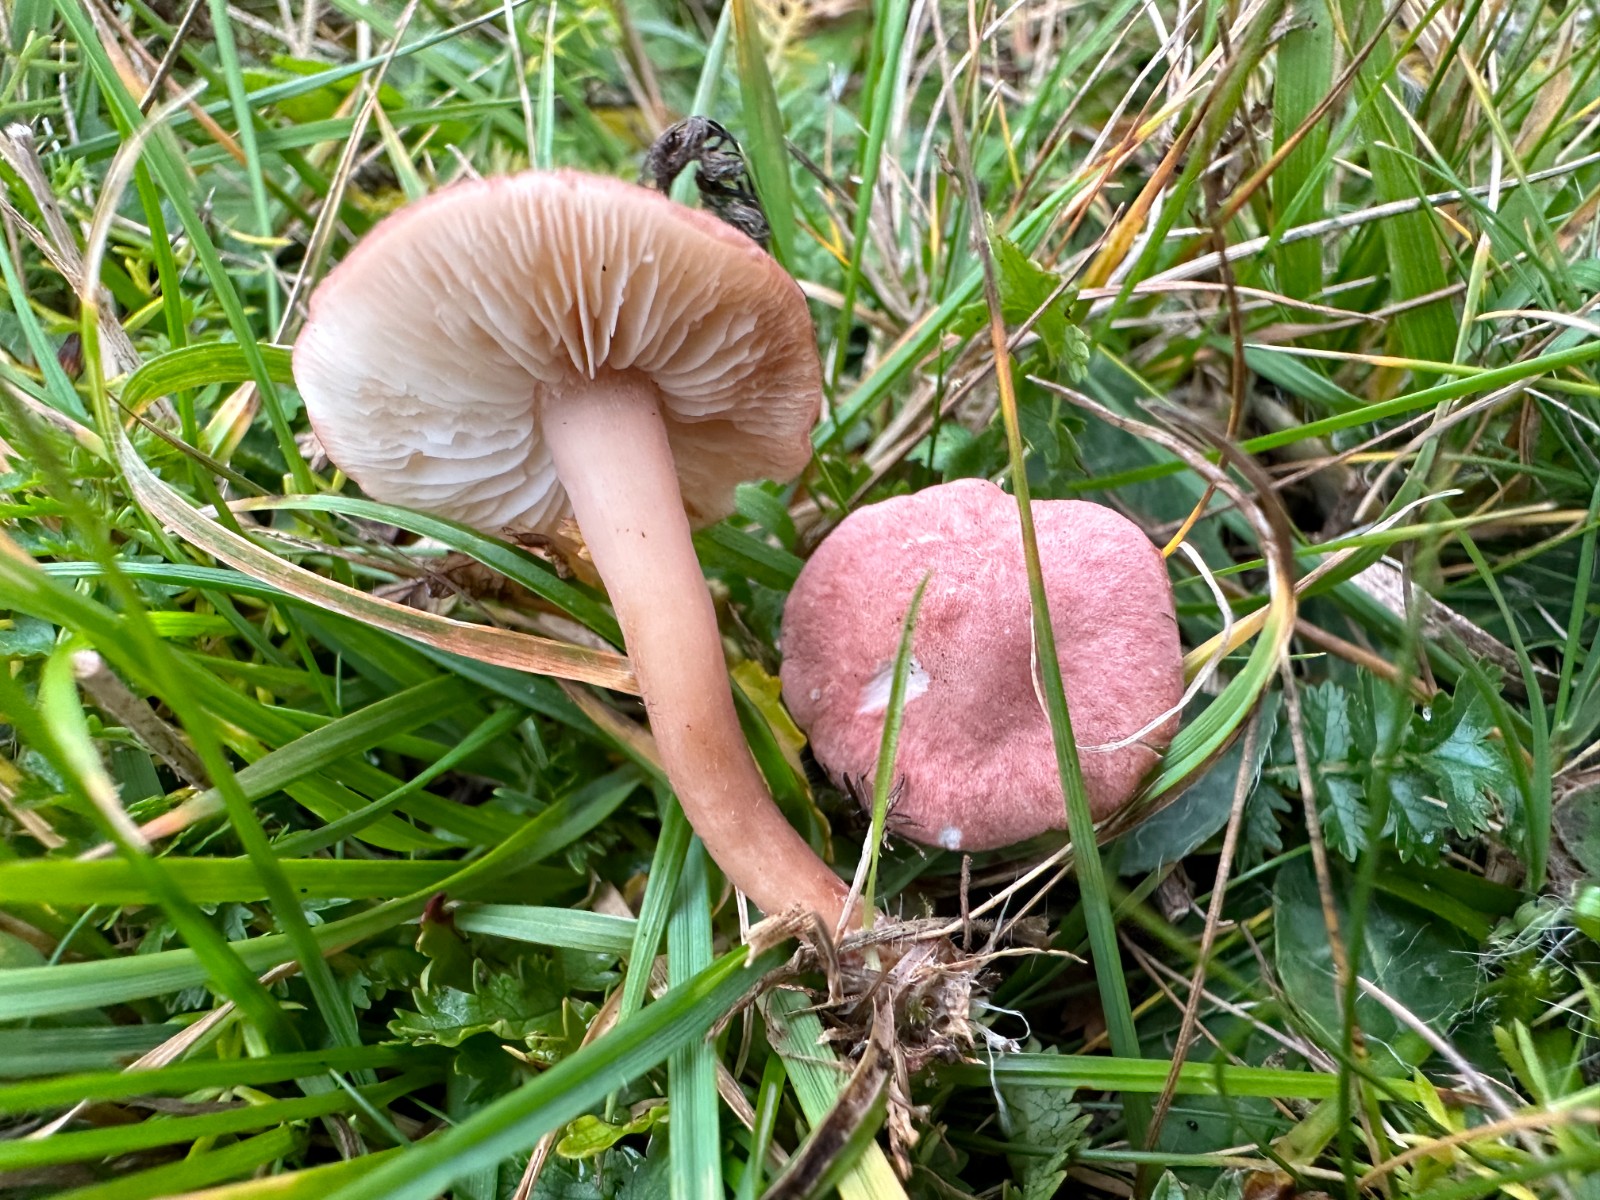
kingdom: Fungi
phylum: Basidiomycota
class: Agaricomycetes
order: Agaricales
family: Lyophyllaceae
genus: Calocybe
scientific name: Calocybe carnea
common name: rosa fagerhat
